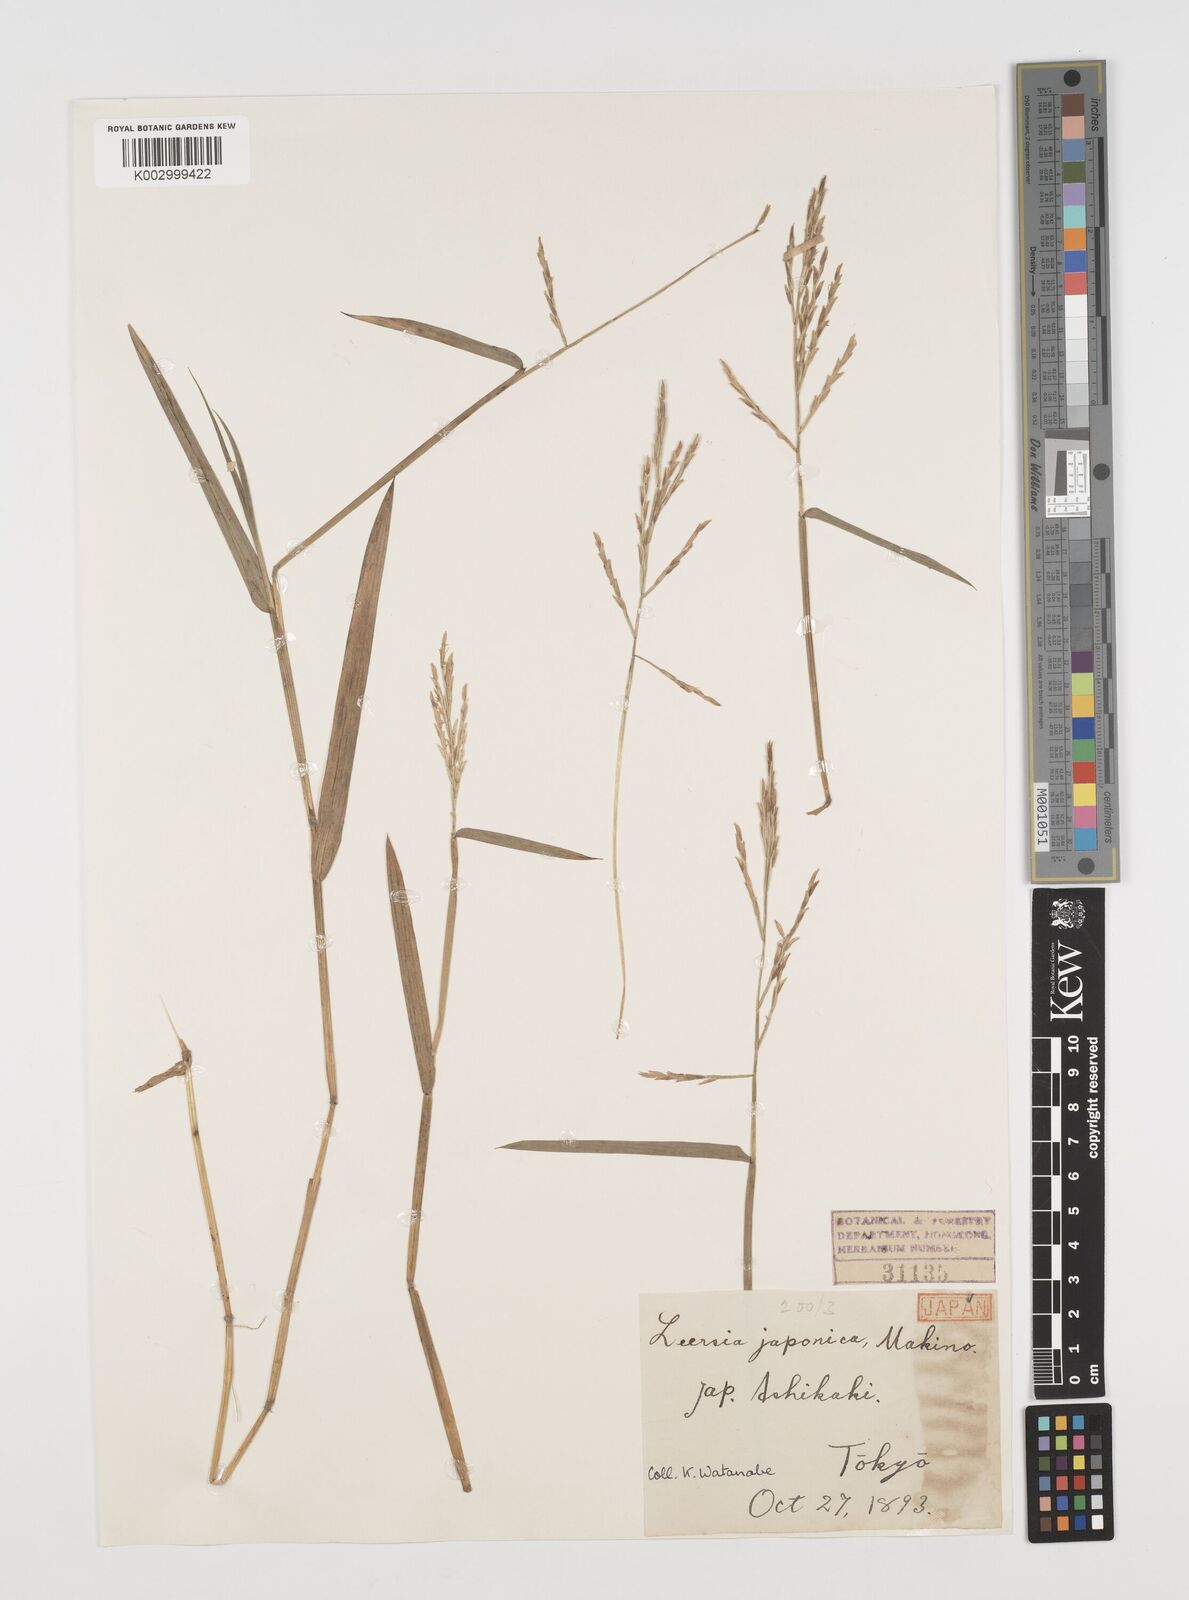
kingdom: Plantae
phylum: Tracheophyta
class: Liliopsida
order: Poales
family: Poaceae
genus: Leersia
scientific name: Leersia japonica
